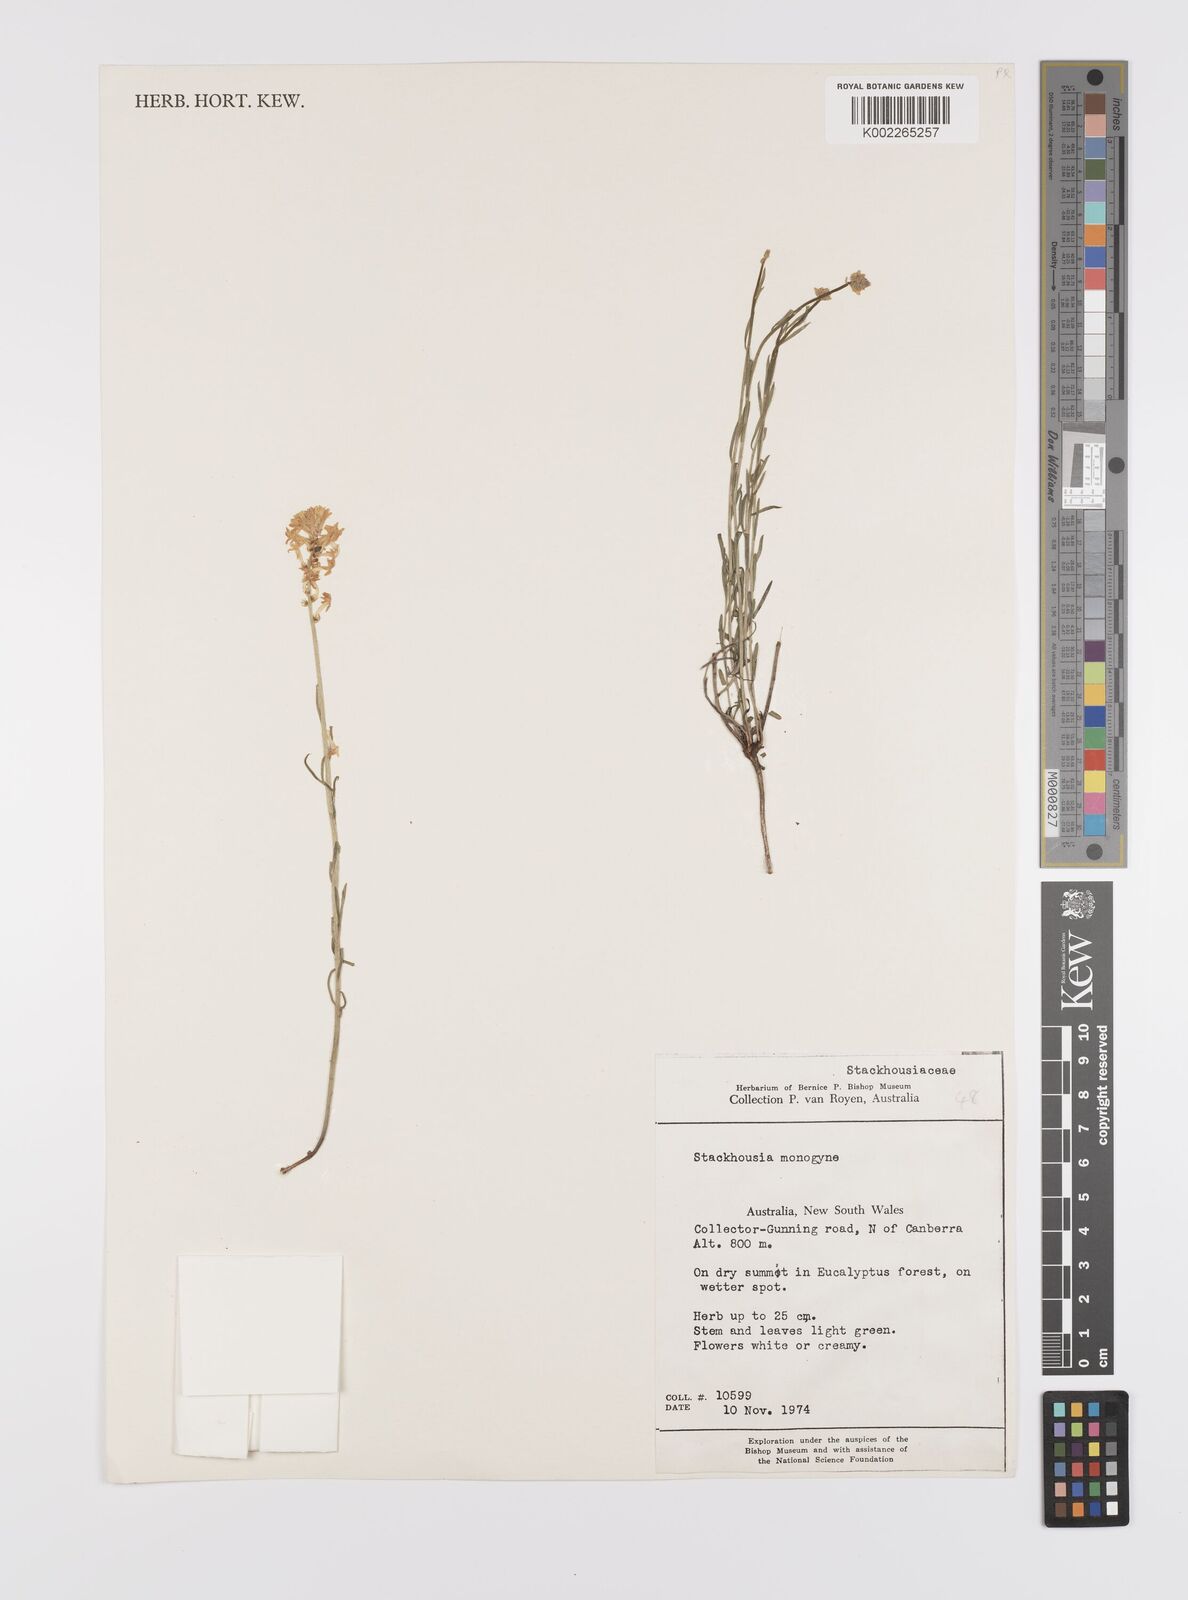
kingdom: Plantae
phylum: Tracheophyta
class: Magnoliopsida
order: Celastrales
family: Celastraceae
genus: Stackhousia
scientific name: Stackhousia monogyna
